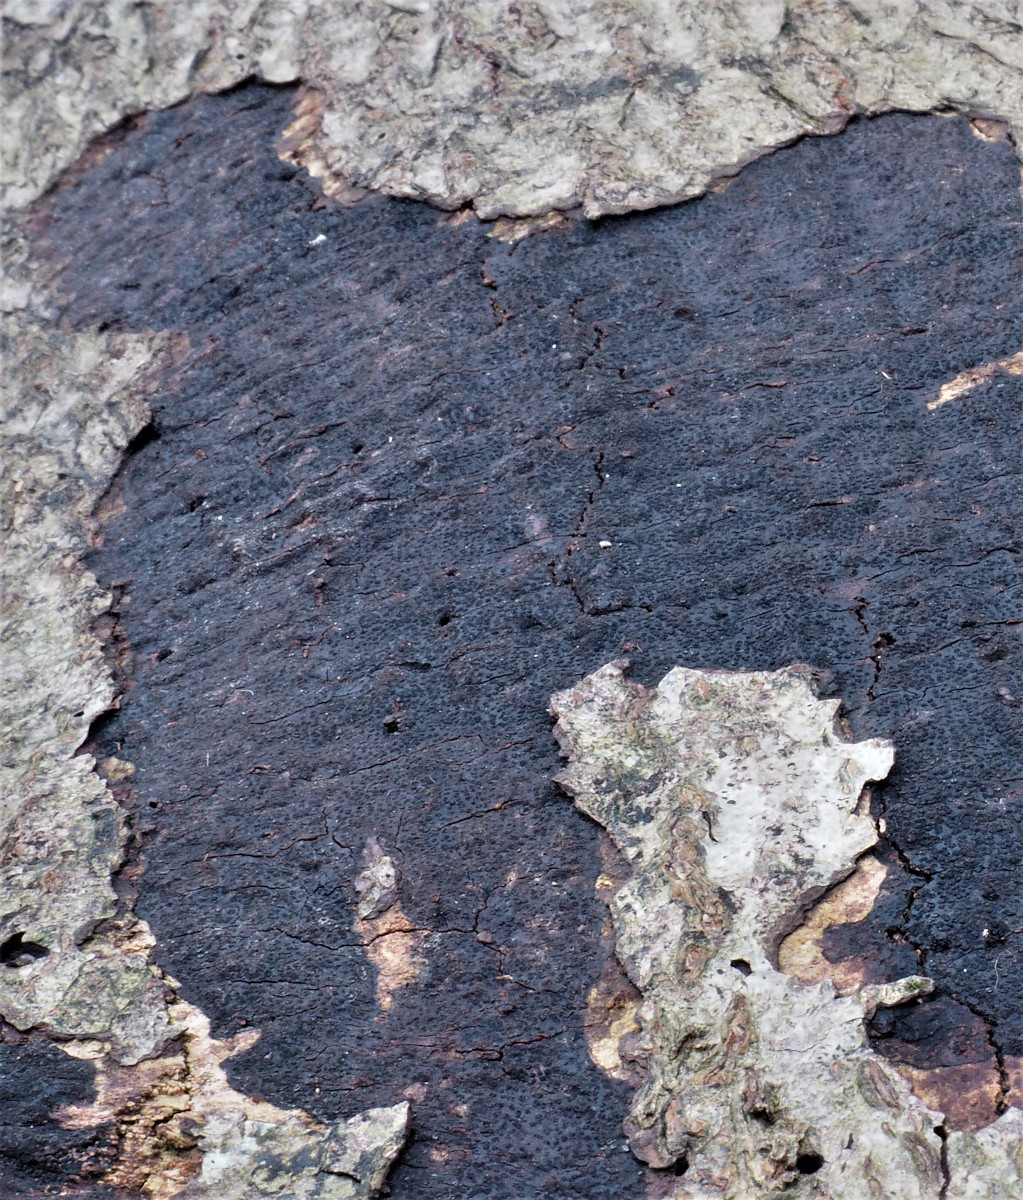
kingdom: Fungi
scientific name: Fungi
